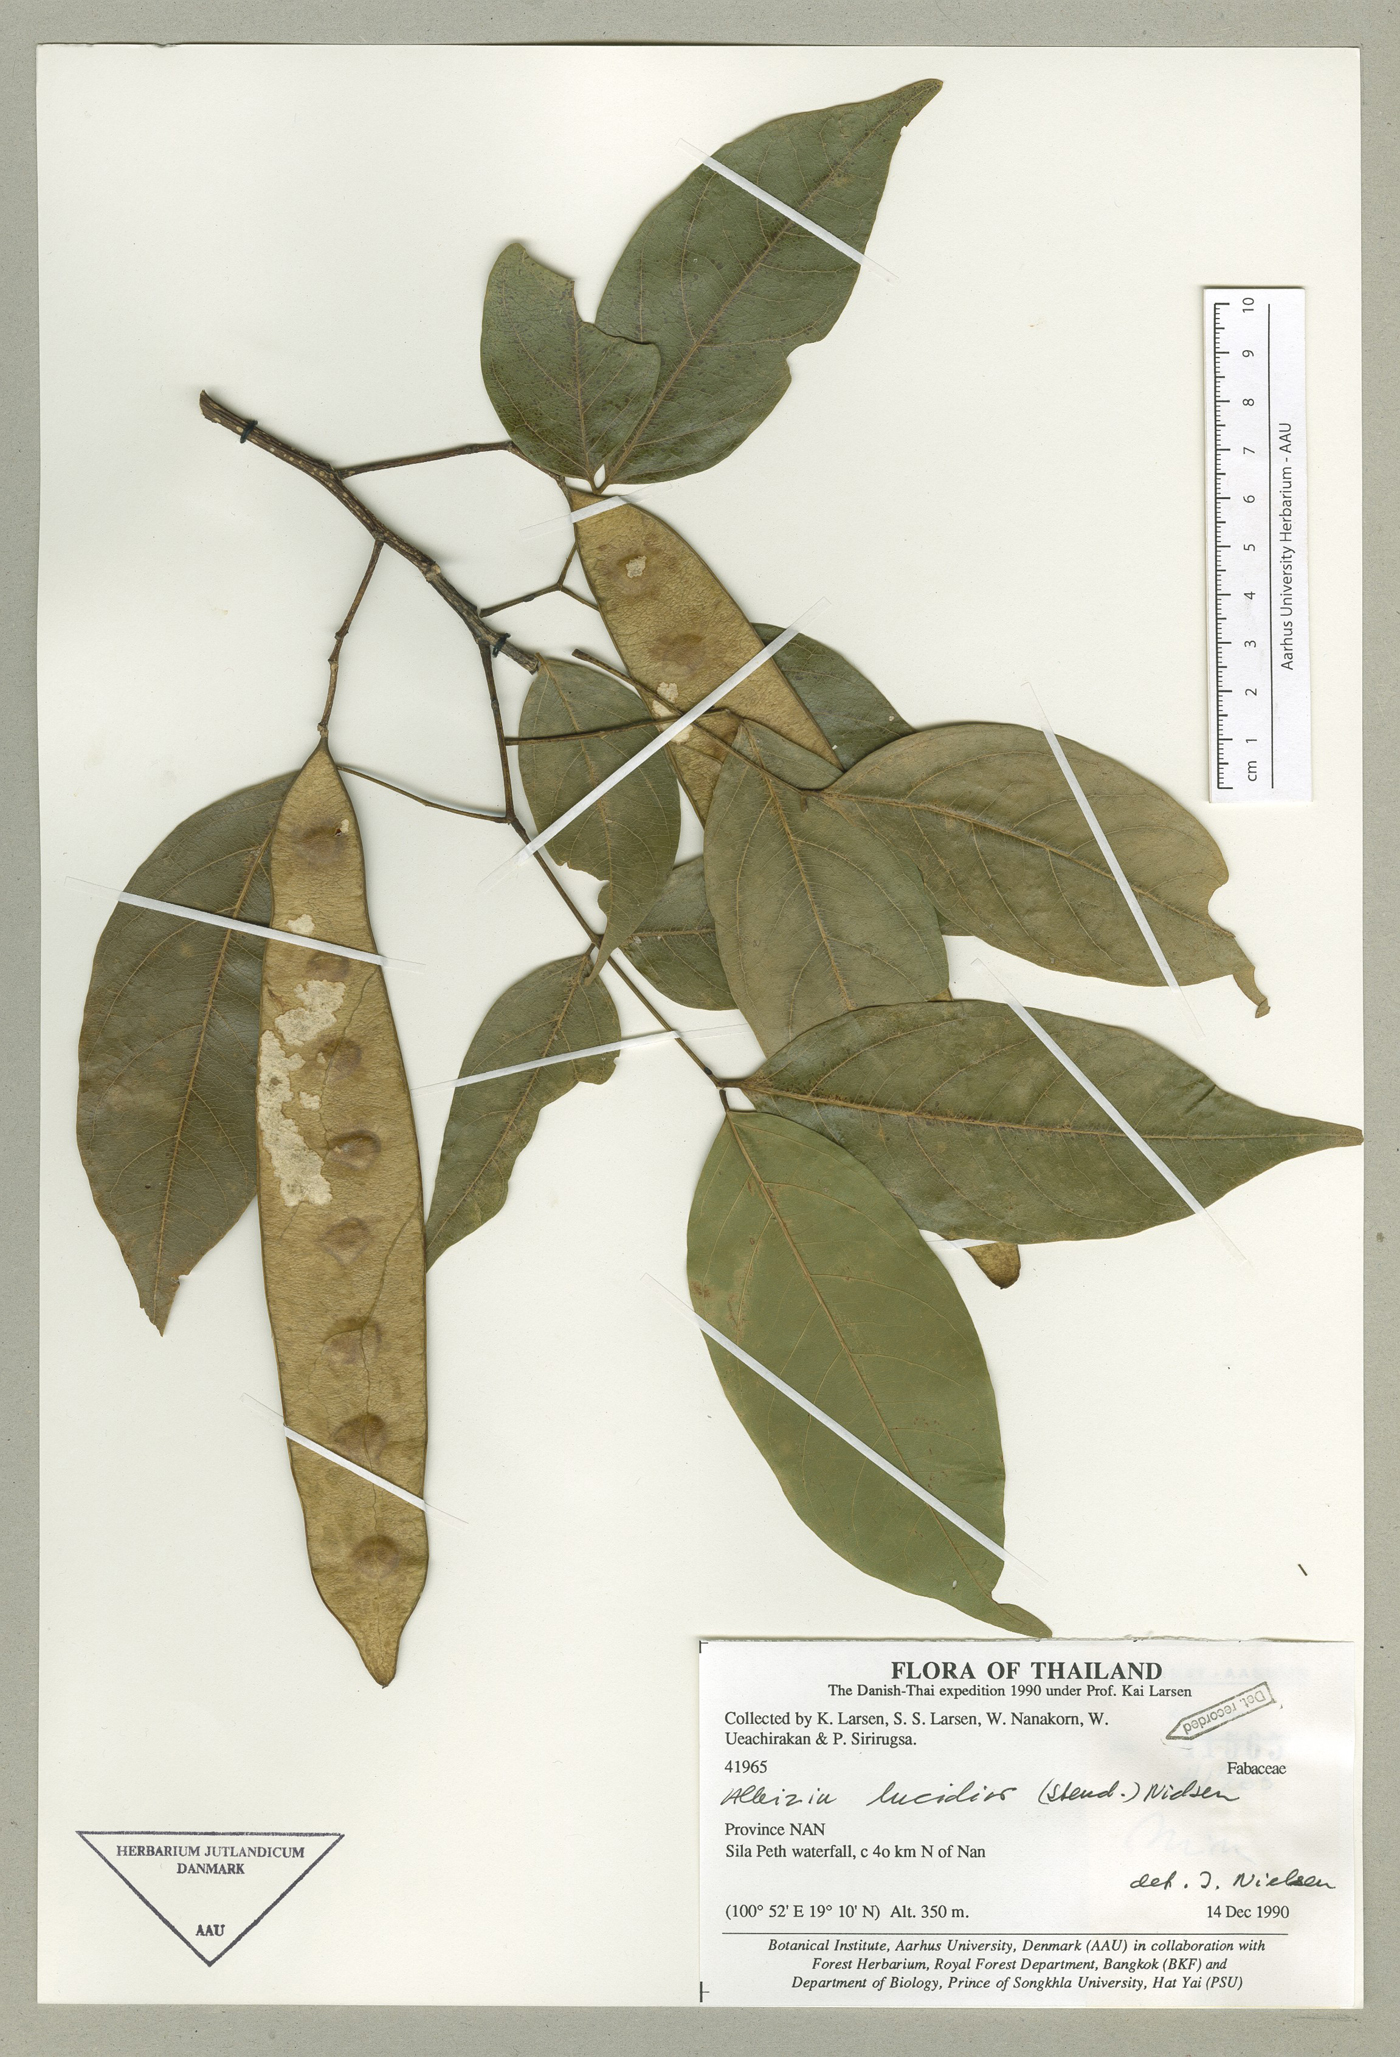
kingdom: Plantae
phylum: Tracheophyta
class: Magnoliopsida
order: Fabales
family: Fabaceae
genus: Albizia
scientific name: Albizia lucidior
